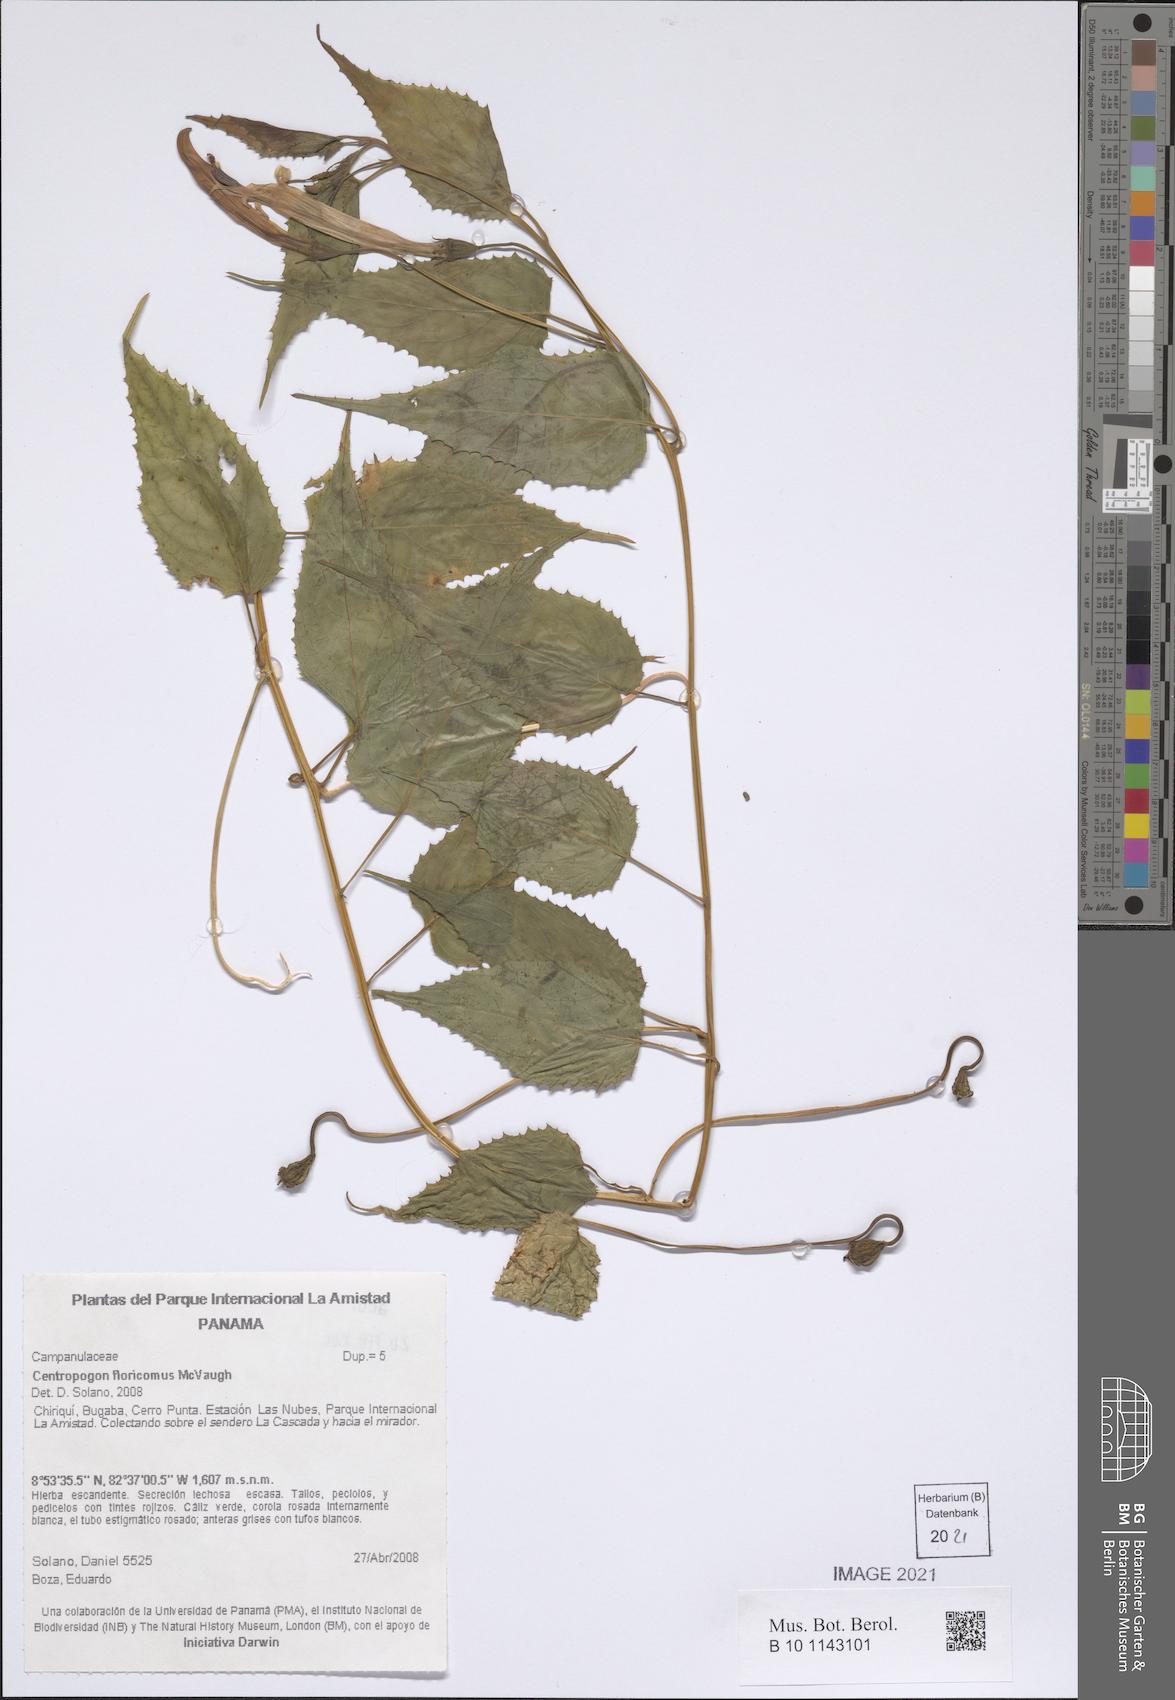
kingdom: Plantae
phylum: Tracheophyta
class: Magnoliopsida
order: Asterales
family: Campanulaceae
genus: Centropogon
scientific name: Centropogon floricomus
